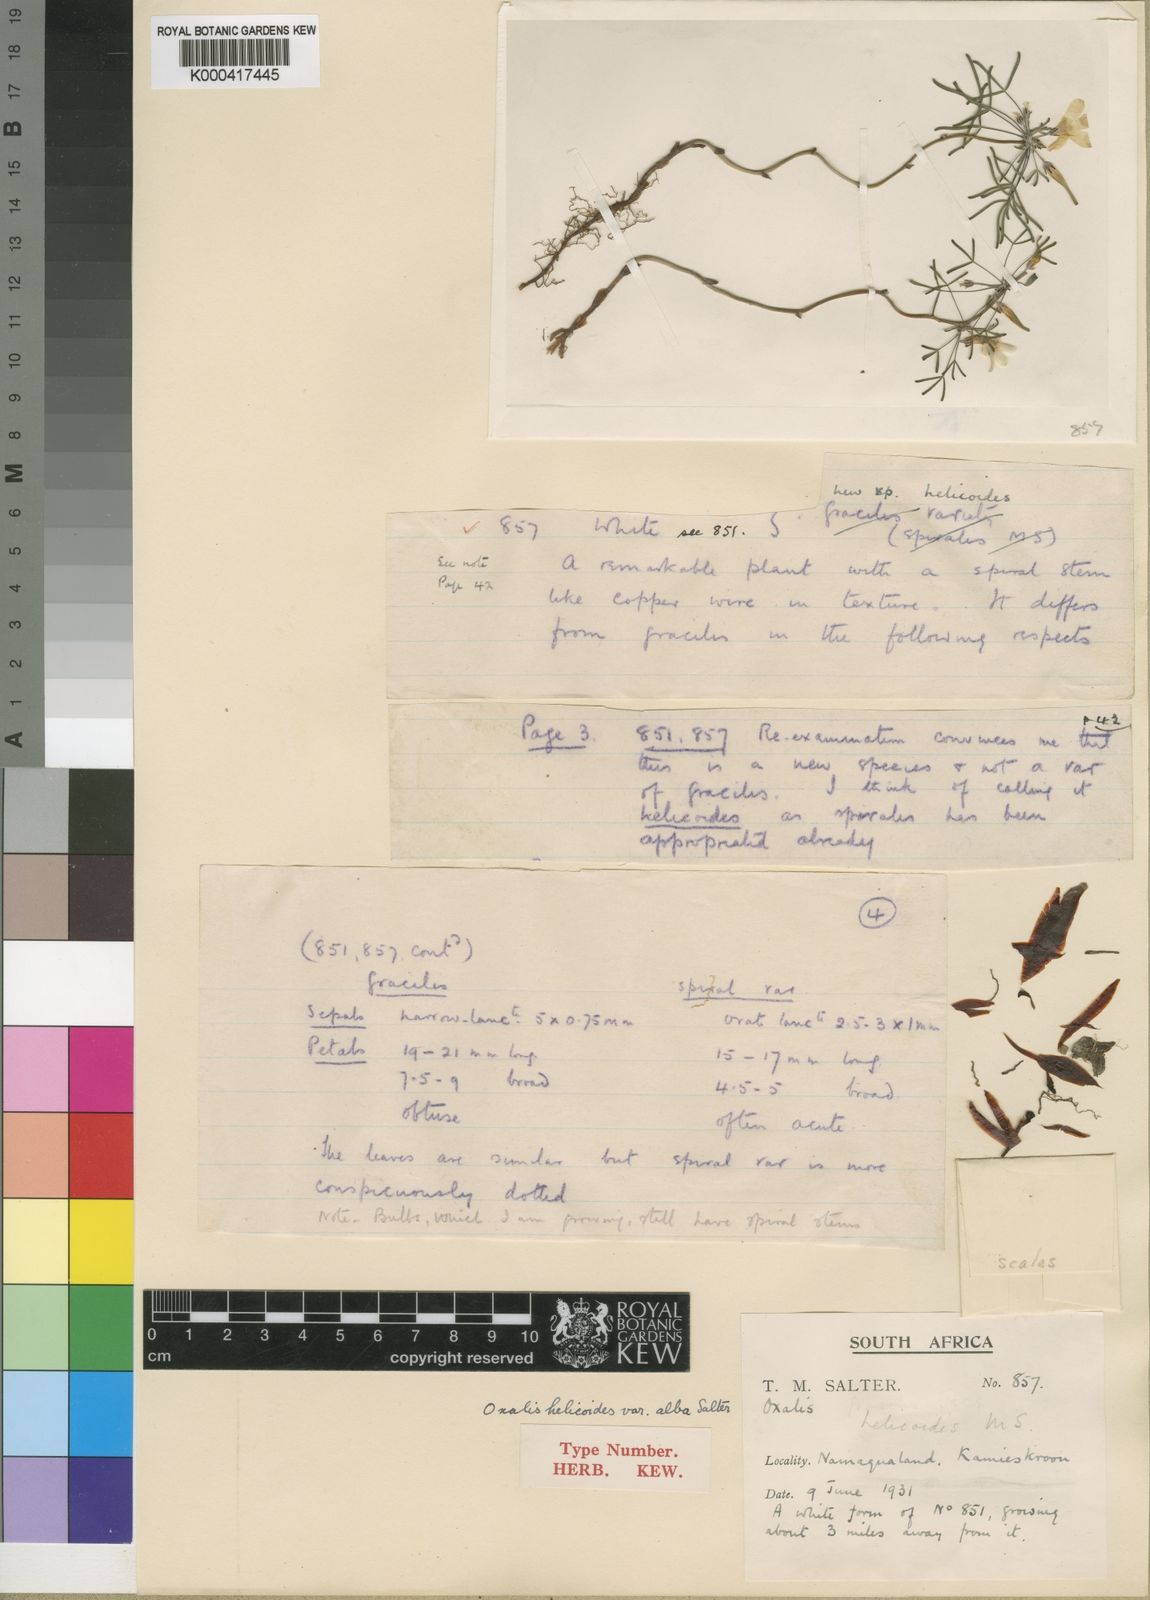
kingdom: Plantae
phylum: Tracheophyta
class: Magnoliopsida
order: Oxalidales
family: Oxalidaceae
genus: Oxalis
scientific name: Oxalis helicoides
